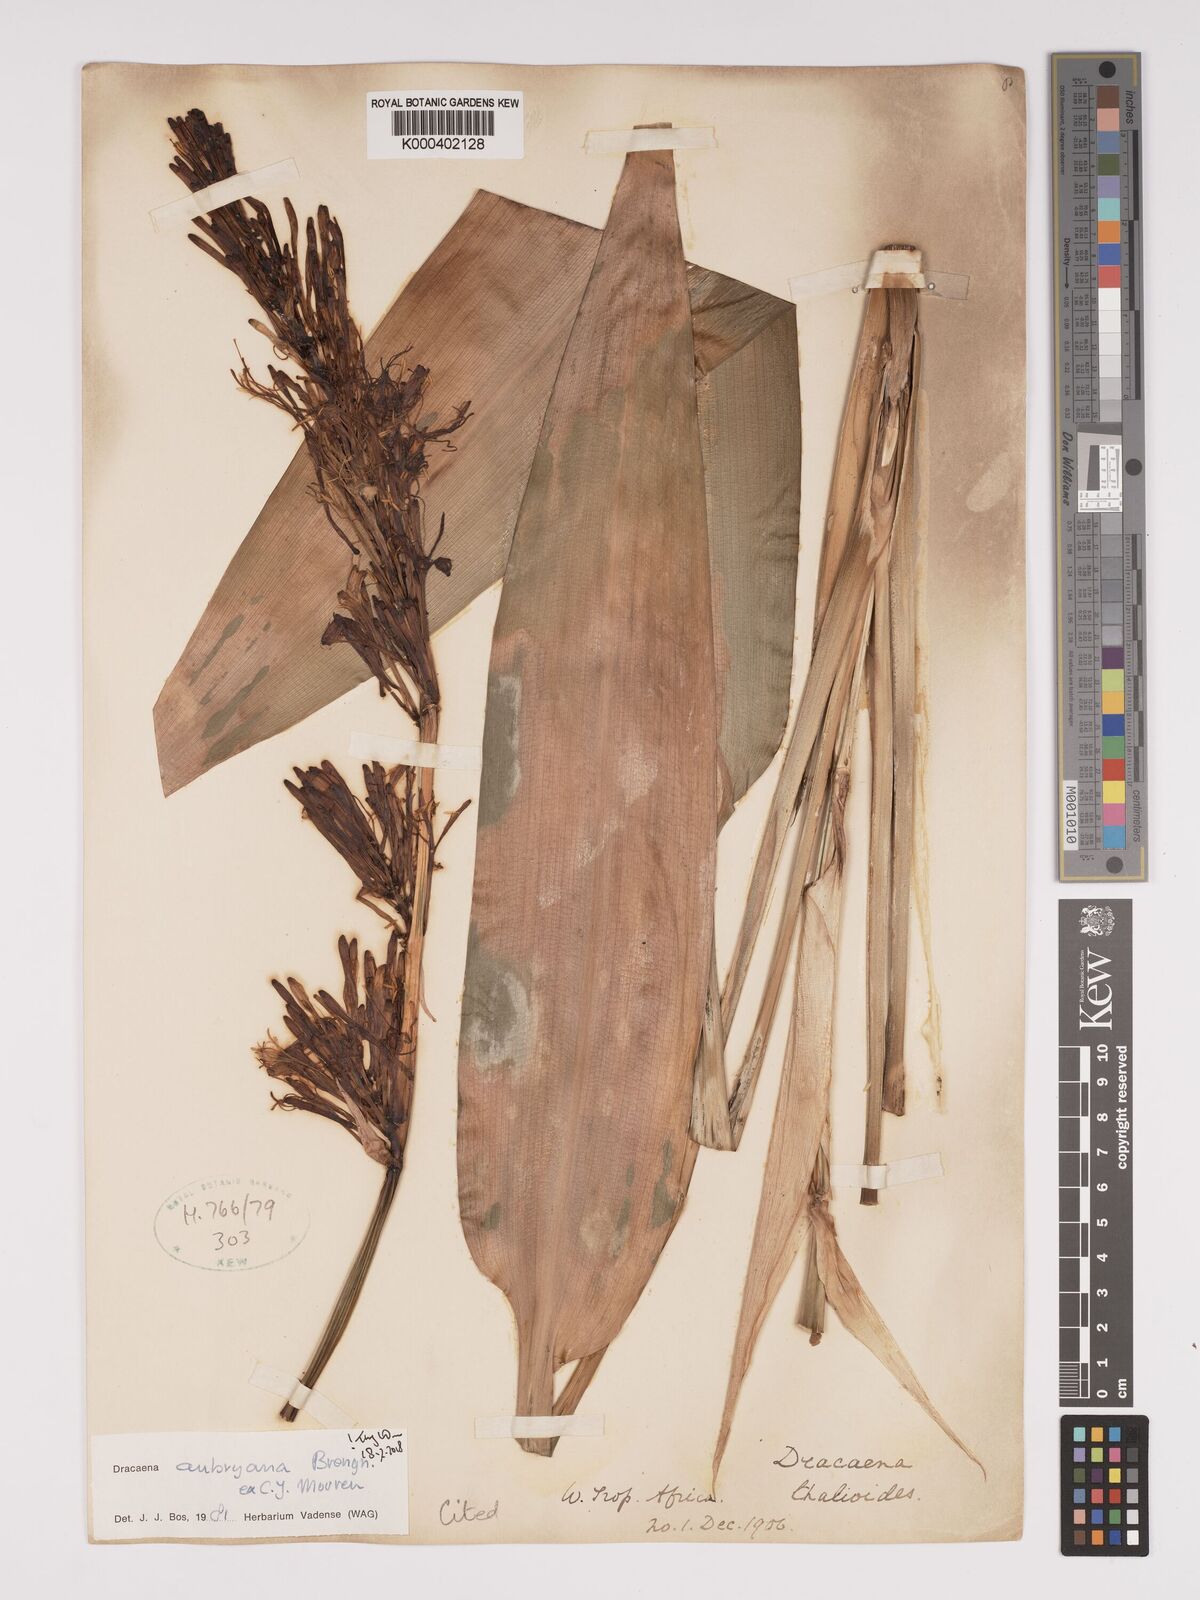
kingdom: Plantae
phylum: Tracheophyta
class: Liliopsida
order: Asparagales
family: Asparagaceae
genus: Dracaena
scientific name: Dracaena aubryana
